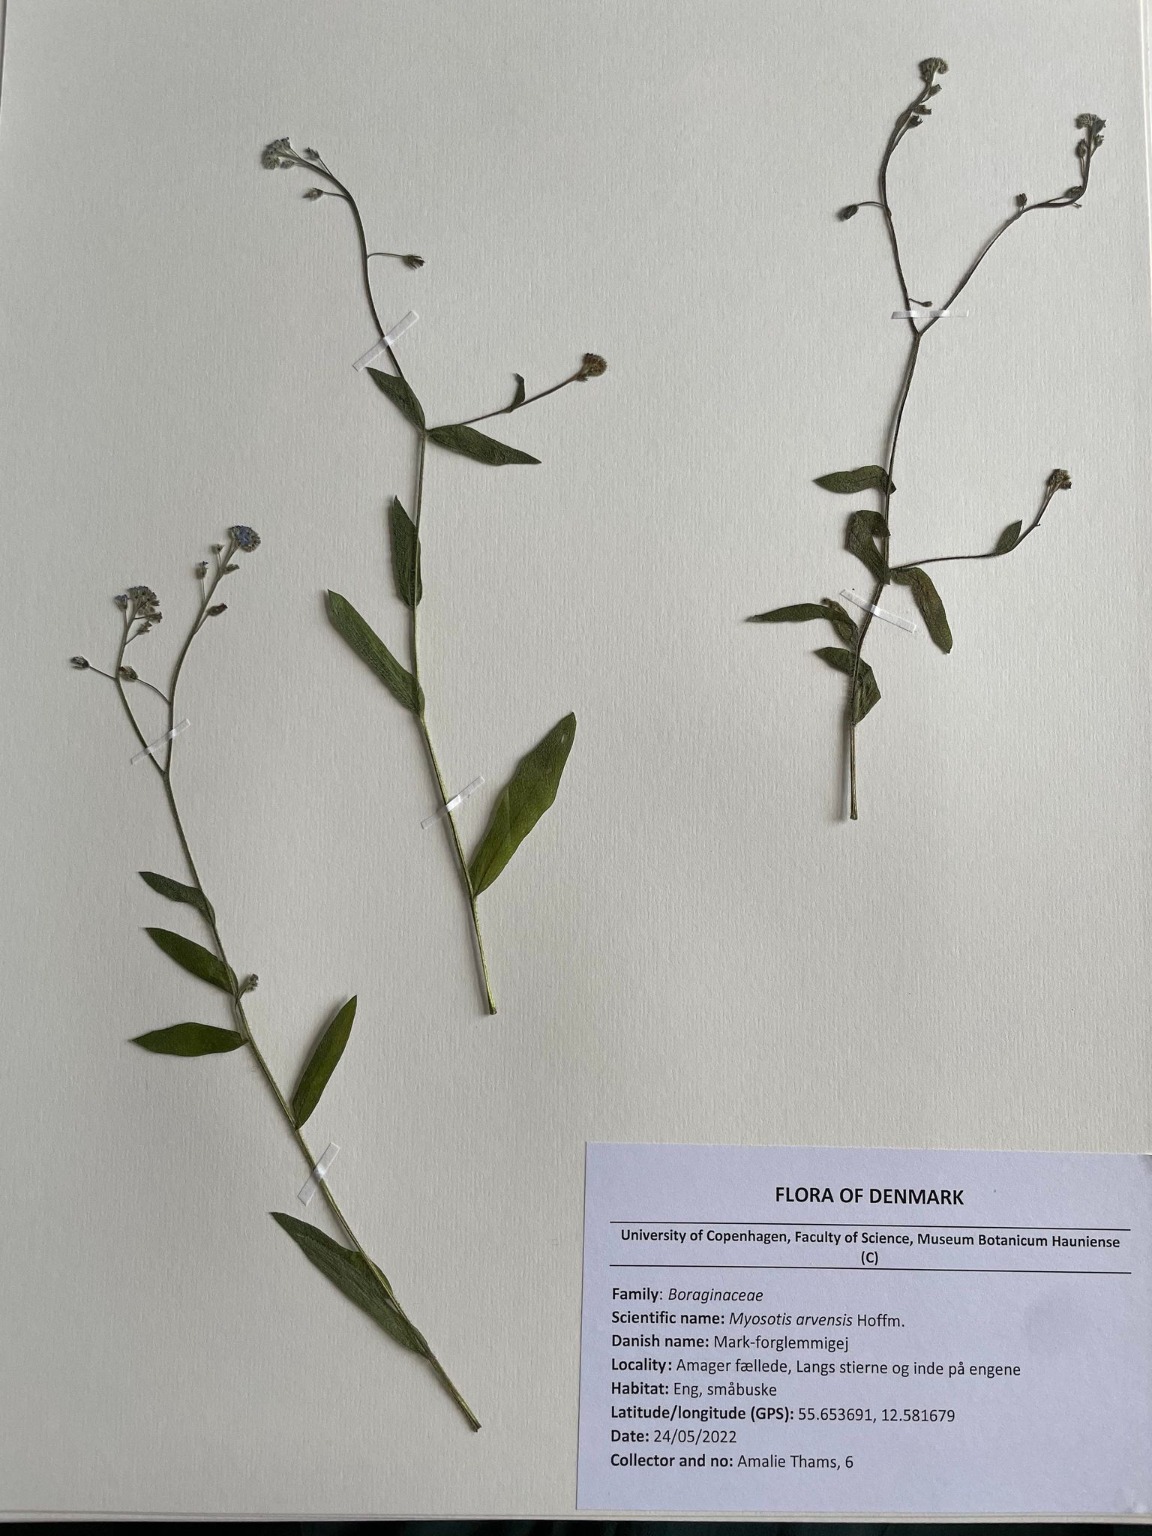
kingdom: Plantae
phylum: Tracheophyta
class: Magnoliopsida
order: Boraginales
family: Boraginaceae
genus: Myosotis
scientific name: Myosotis arvensis
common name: Mark-forglemmigej
